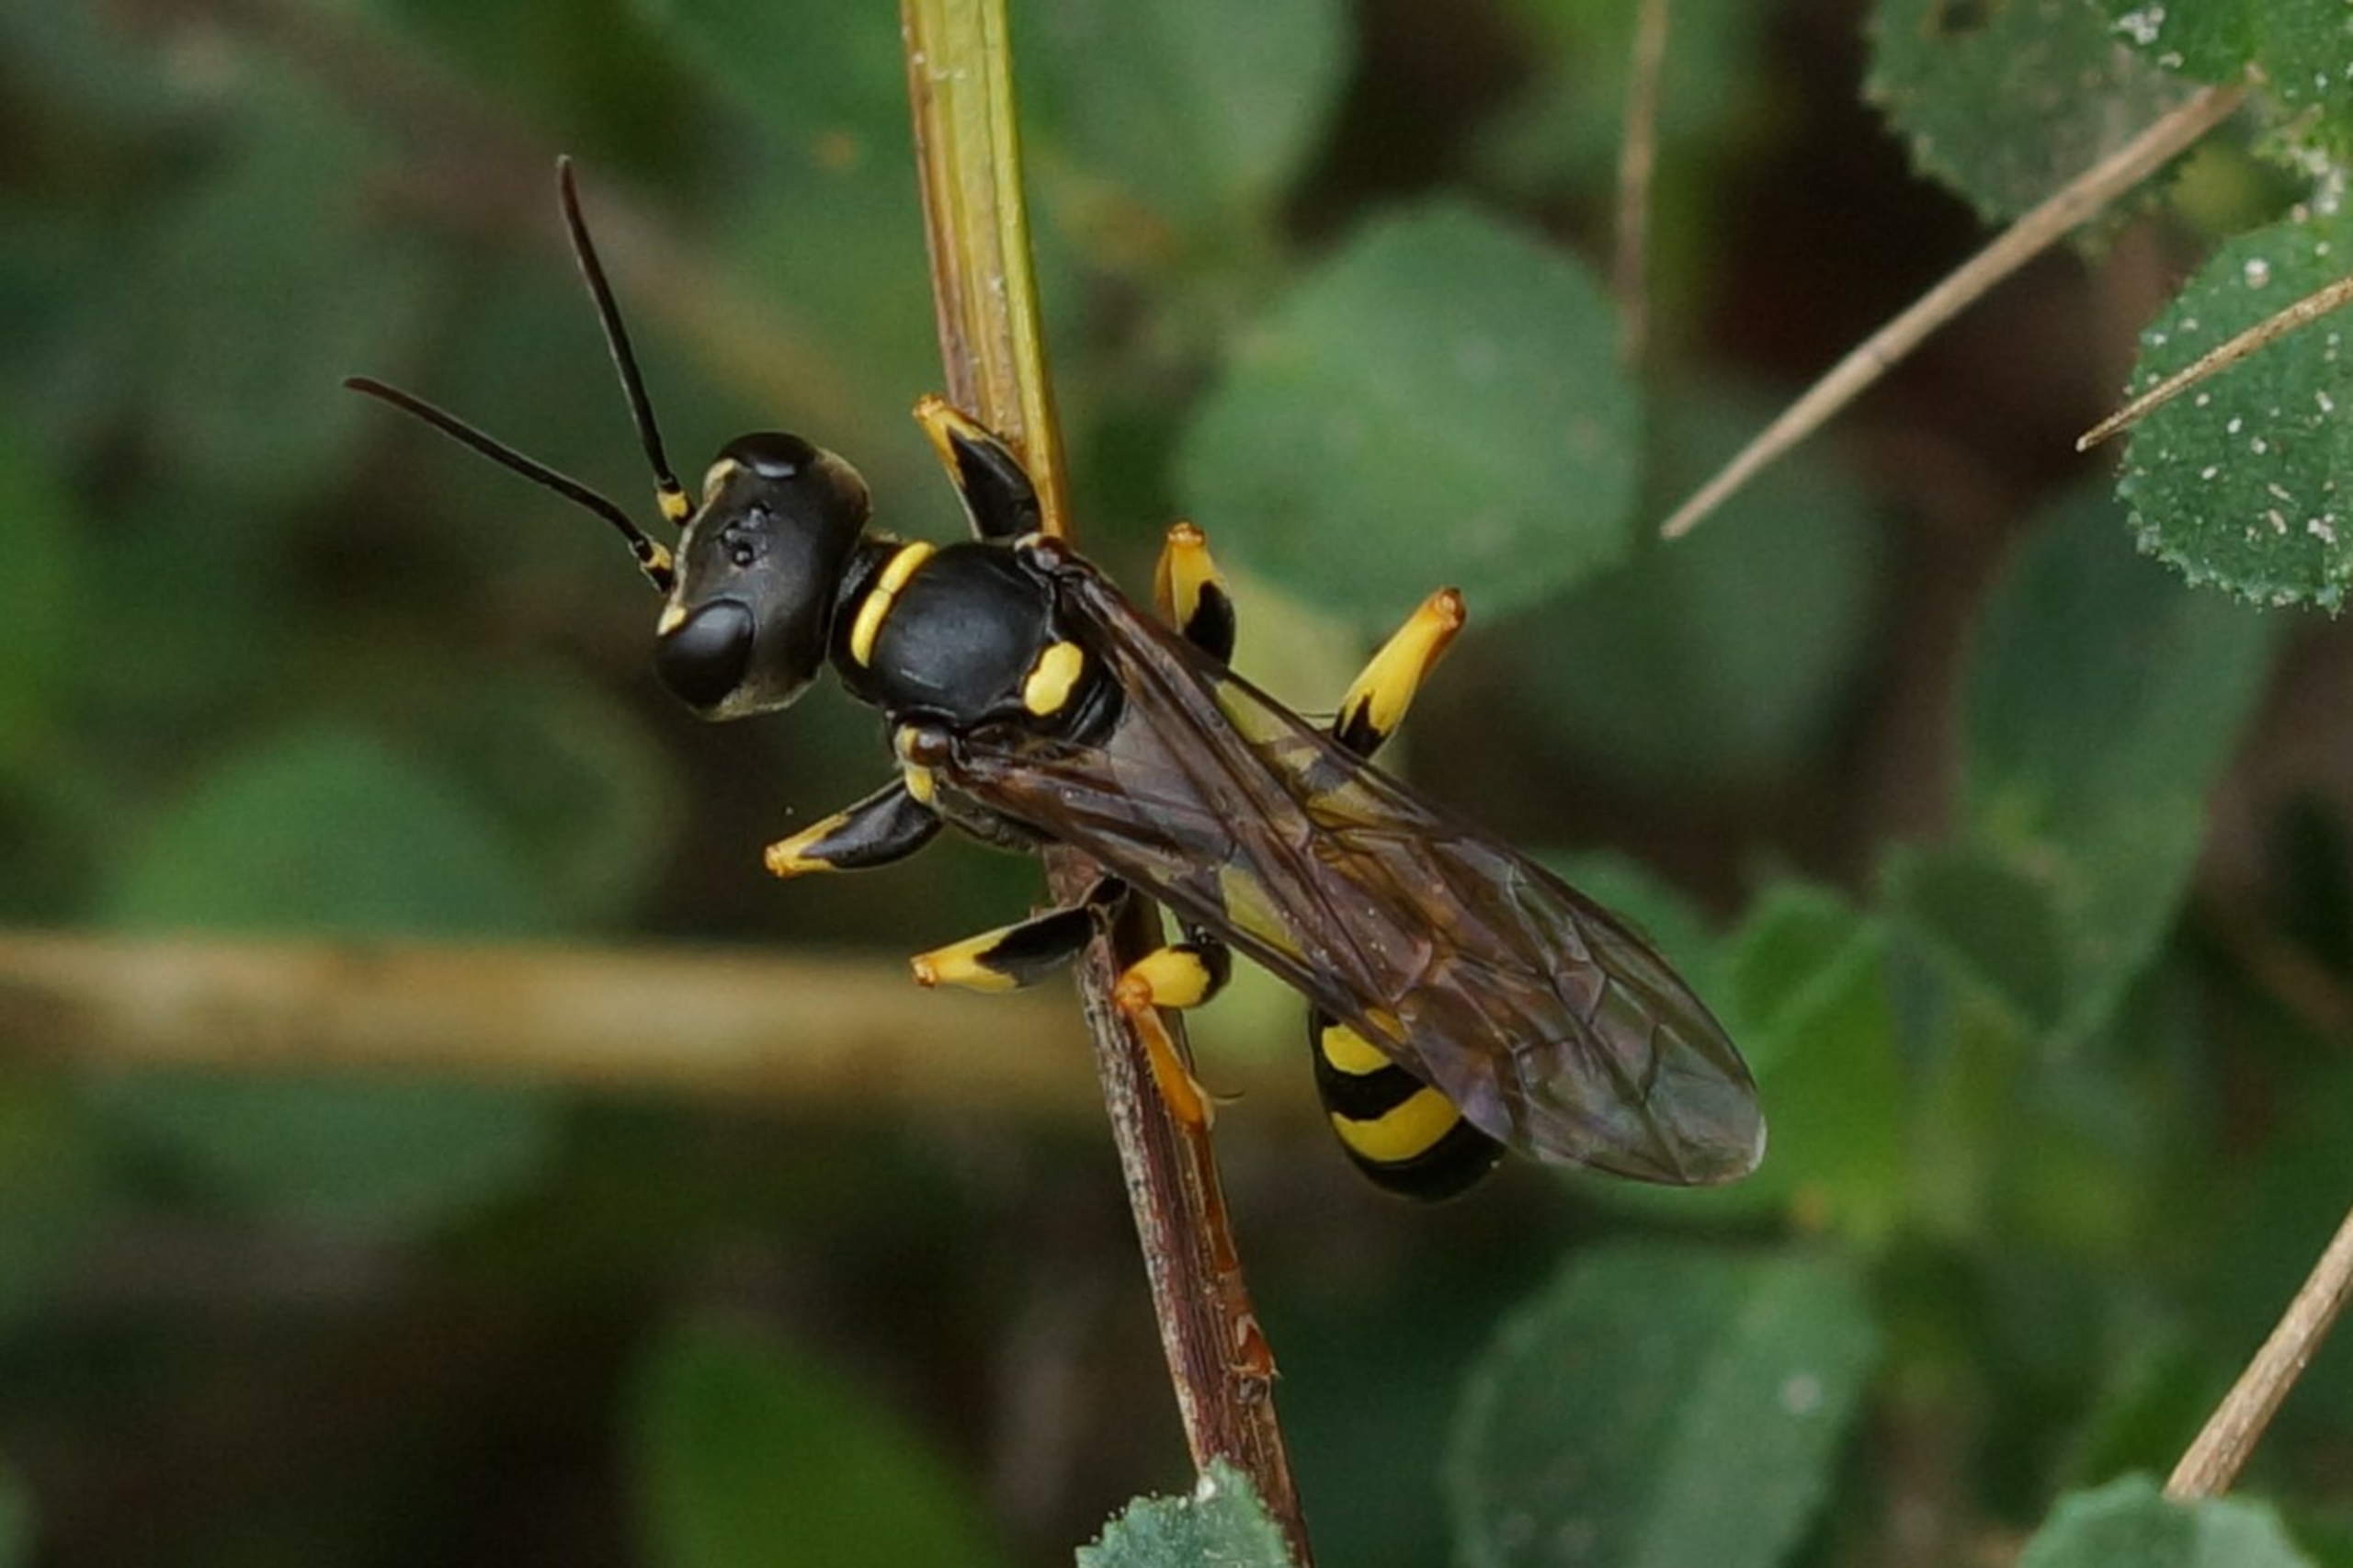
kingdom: Animalia
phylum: Arthropoda
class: Insecta
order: Hymenoptera
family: Crabronidae
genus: Mellinus
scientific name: Mellinus arvensis
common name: Efterårsgravehveps
